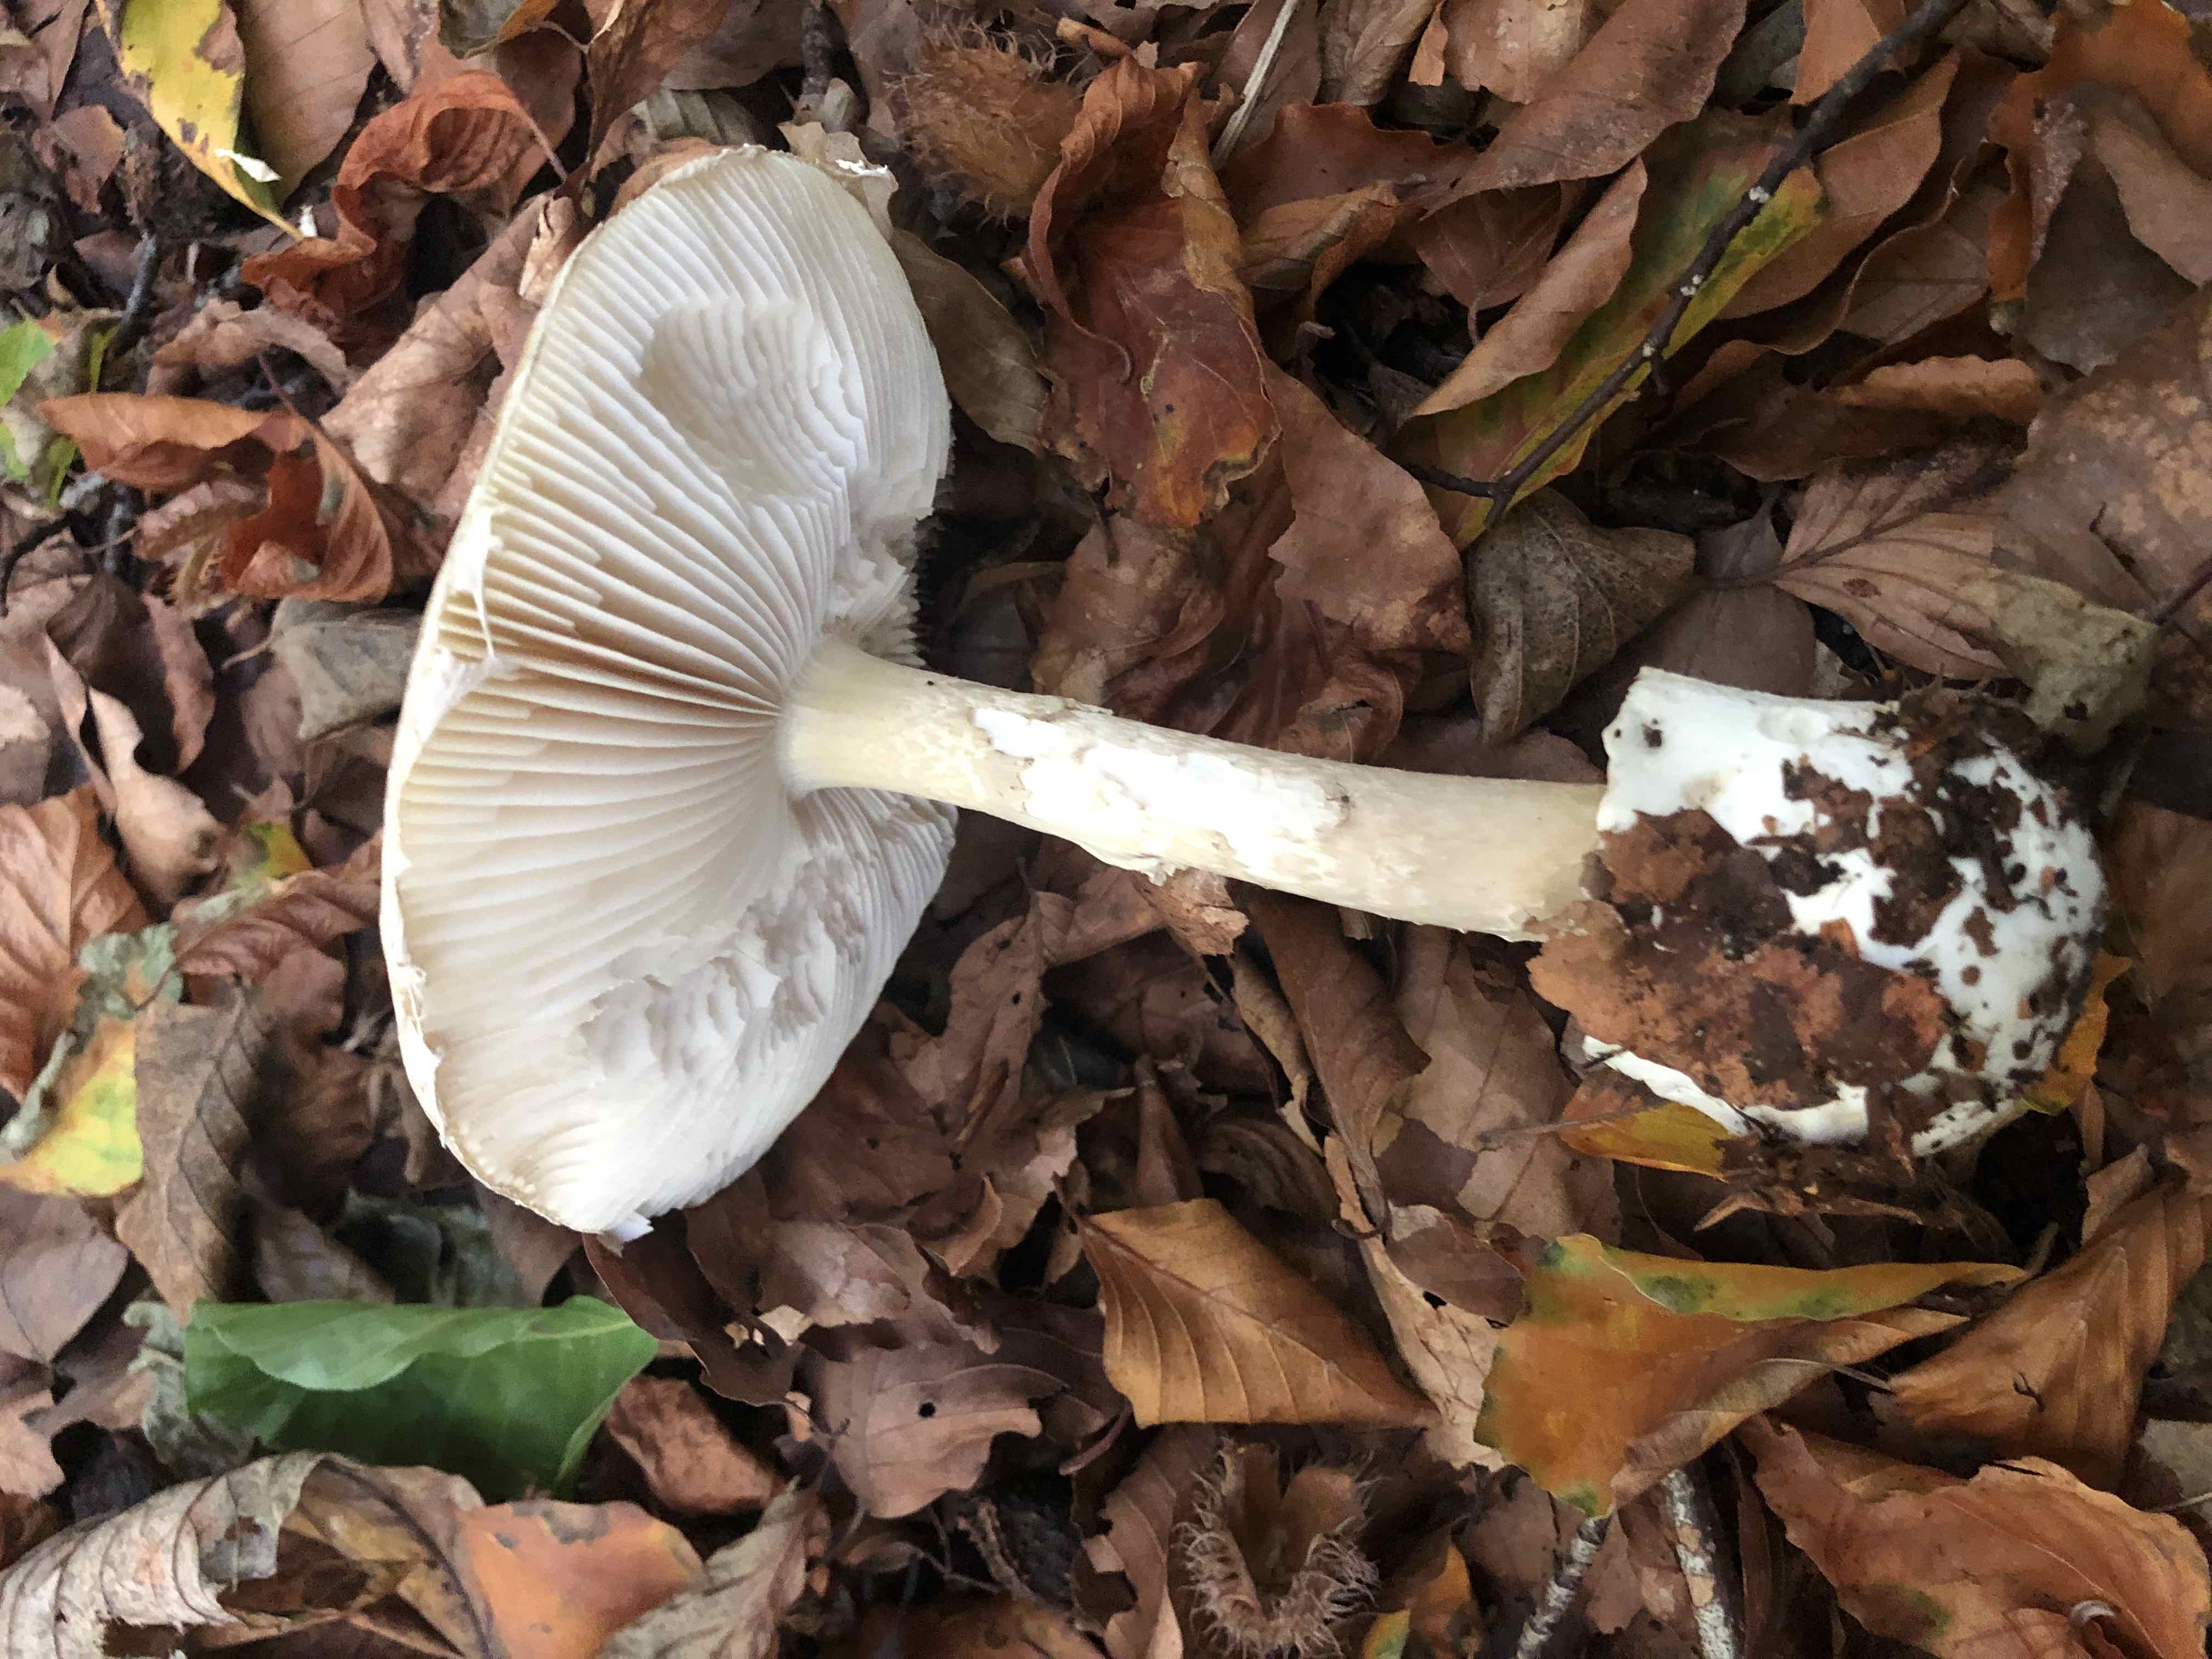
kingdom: Fungi
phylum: Basidiomycota
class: Agaricomycetes
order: Agaricales
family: Amanitaceae
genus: Amanita
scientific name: Amanita phalloides
